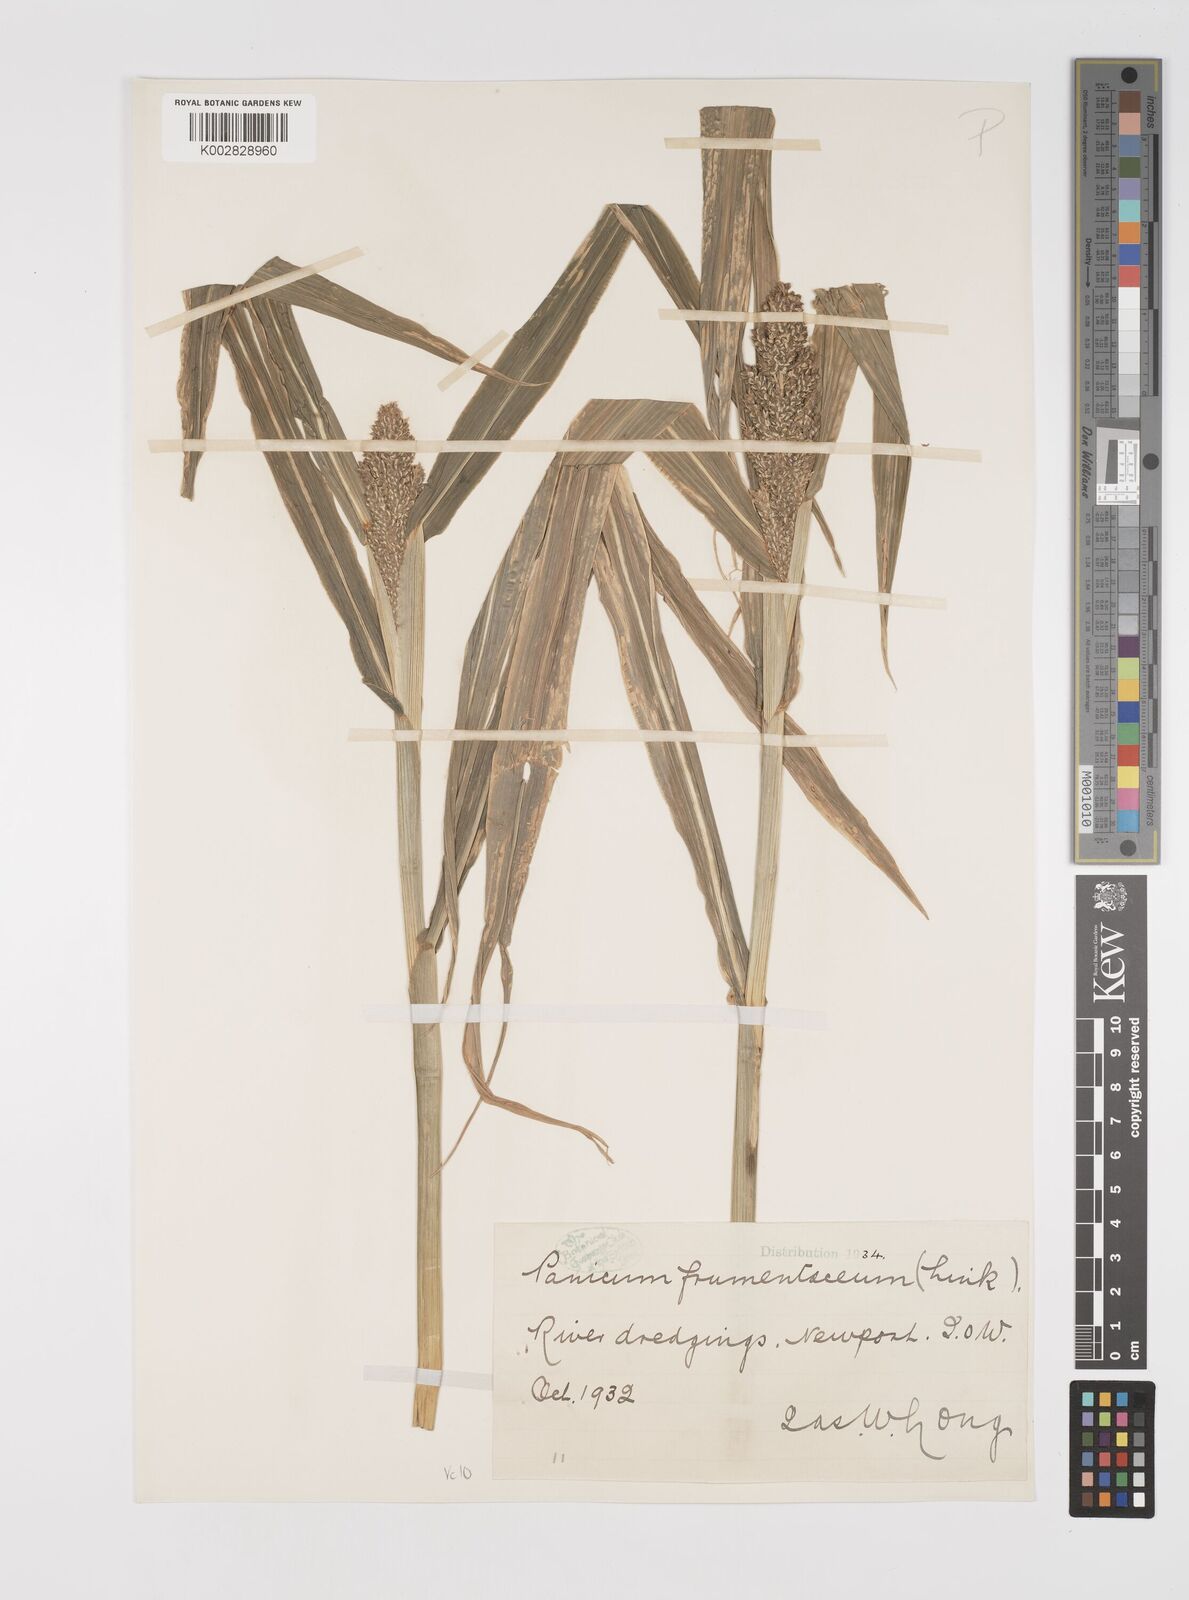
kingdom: Plantae
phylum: Tracheophyta
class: Liliopsida
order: Poales
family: Poaceae
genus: Echinochloa
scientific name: Echinochloa crus-galli
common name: Cockspur
